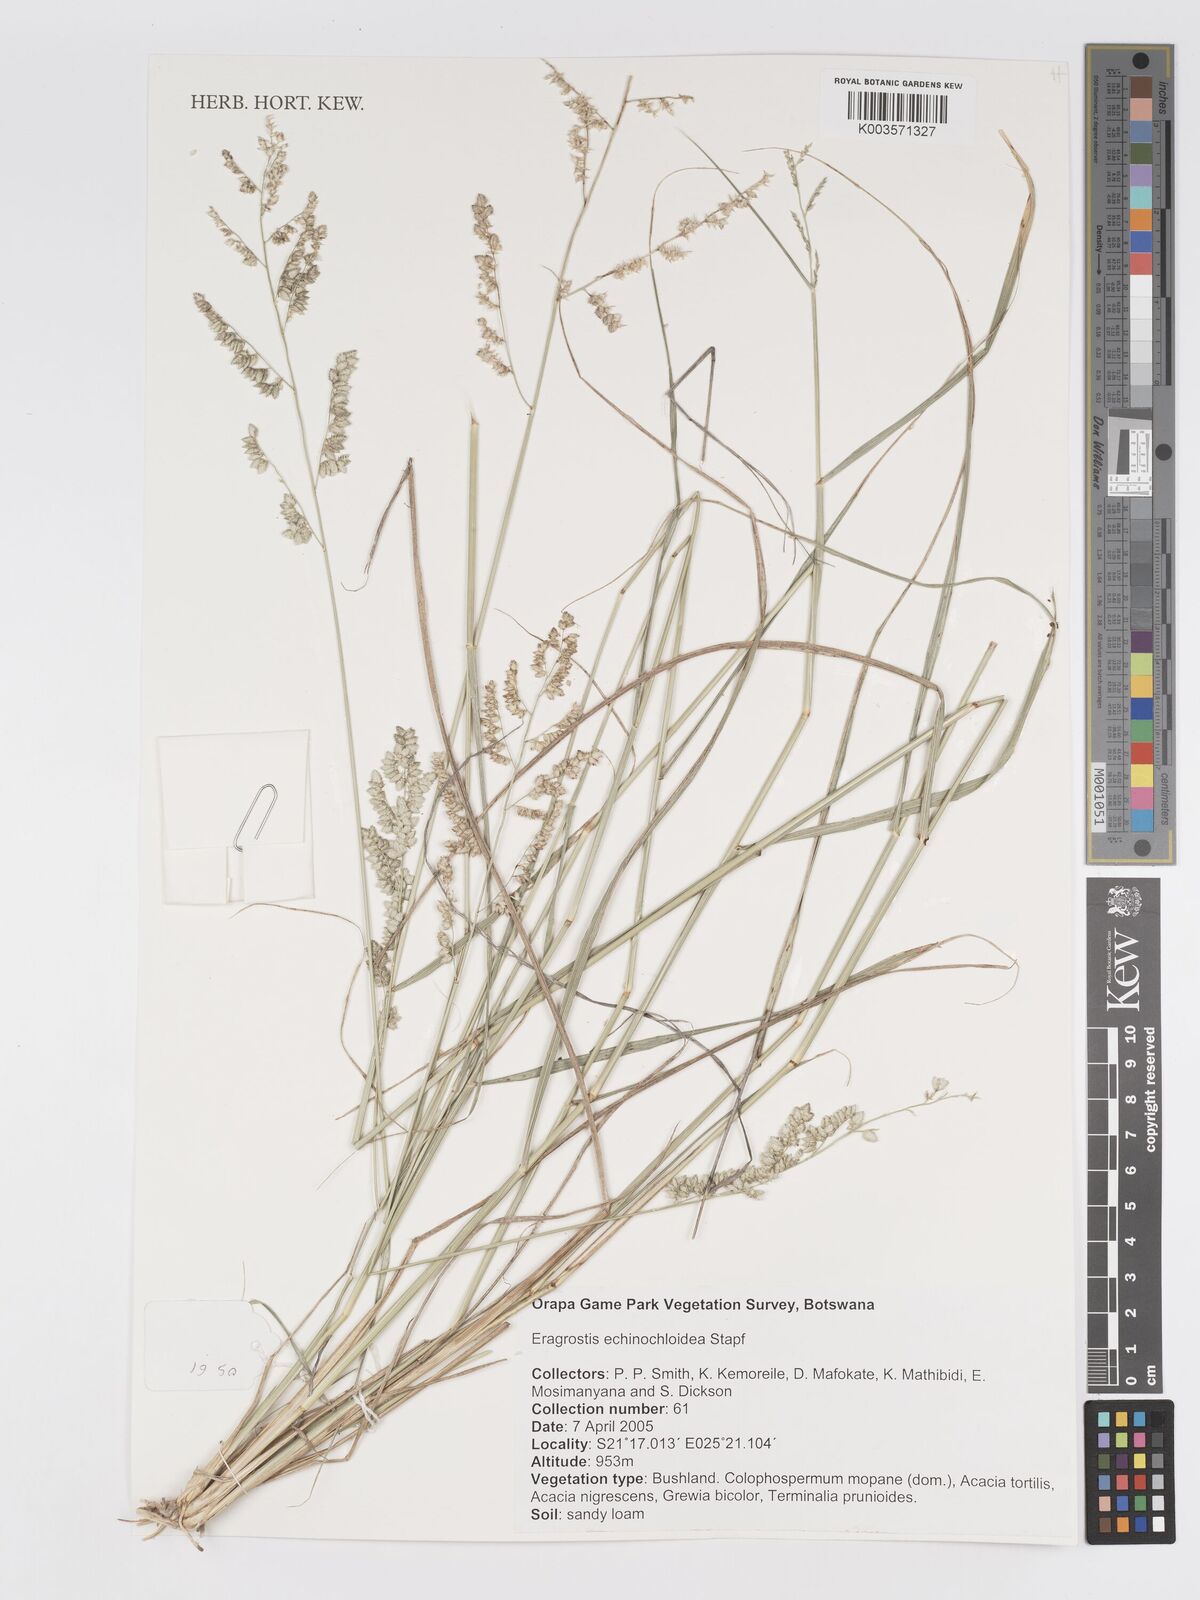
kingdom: Plantae
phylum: Tracheophyta
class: Liliopsida
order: Poales
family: Poaceae
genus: Eragrostis
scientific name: Eragrostis echinochloidea
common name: African lovegrass
